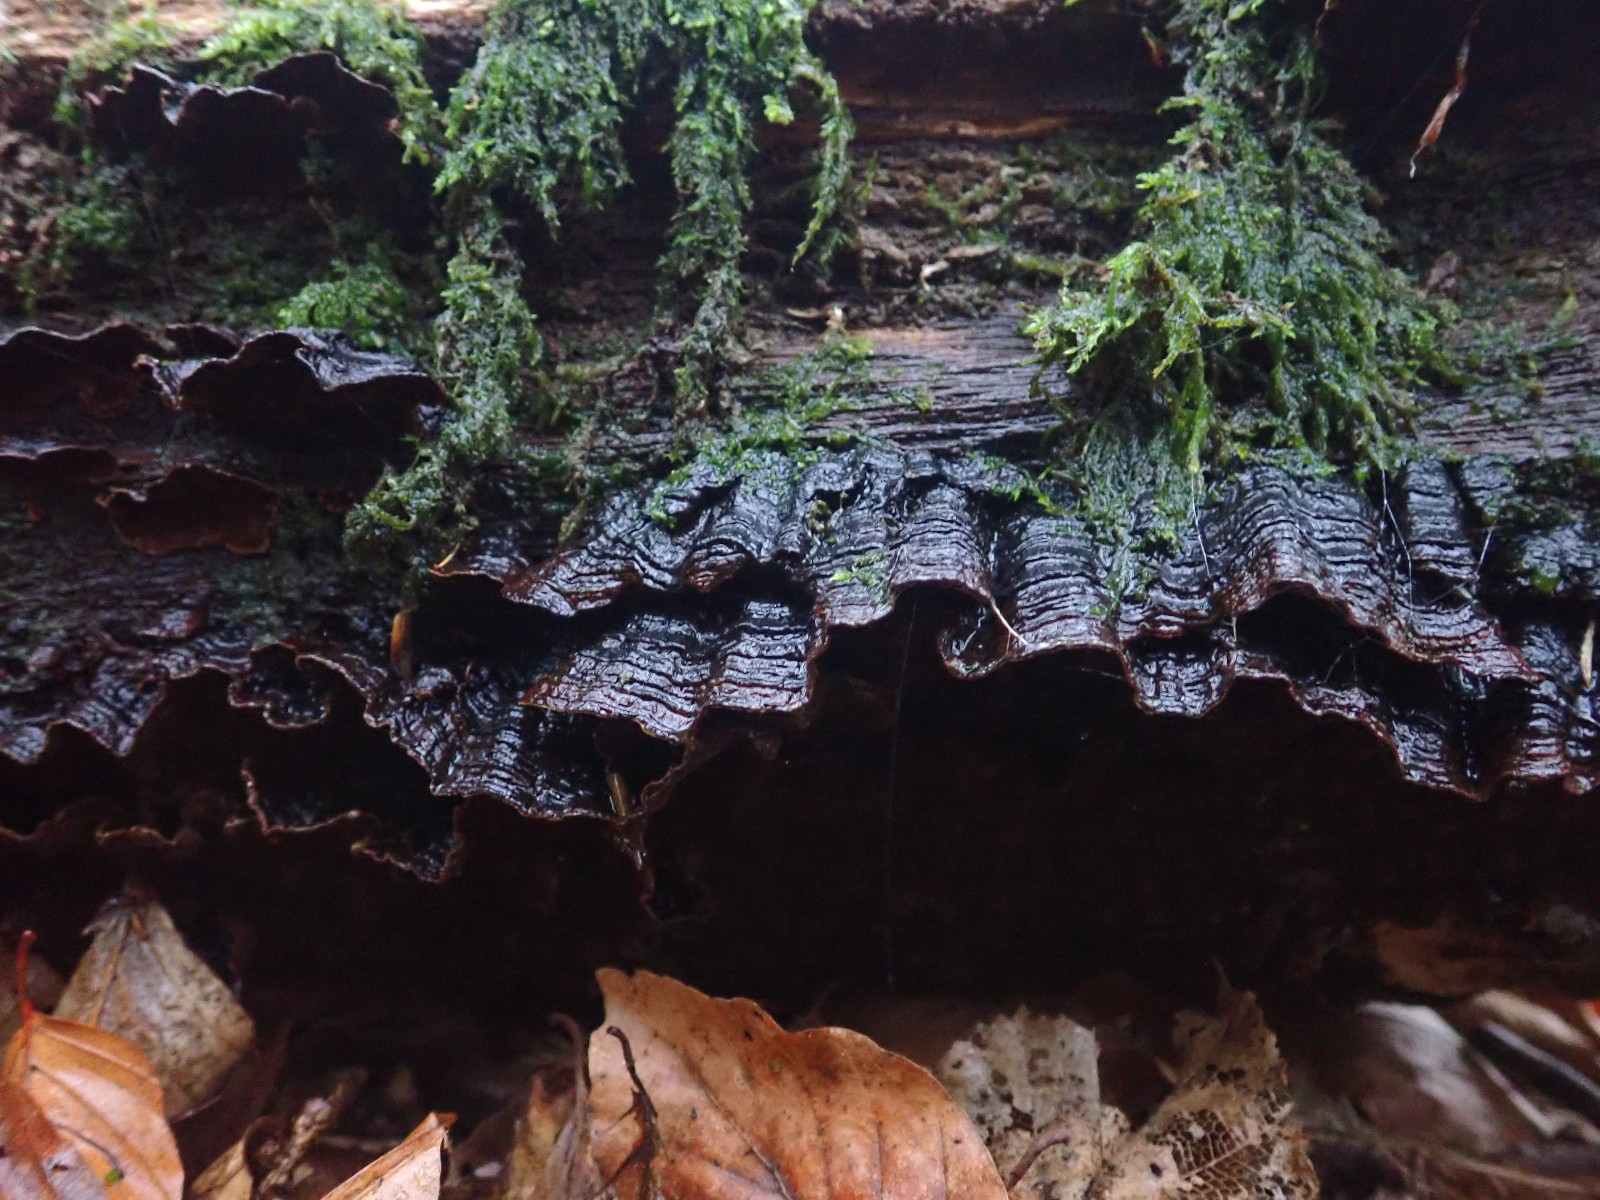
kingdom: Fungi
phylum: Basidiomycota
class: Agaricomycetes
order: Hymenochaetales
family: Hymenochaetaceae
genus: Hymenochaete
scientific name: Hymenochaete rubiginosa
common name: stiv ruslædersvamp
